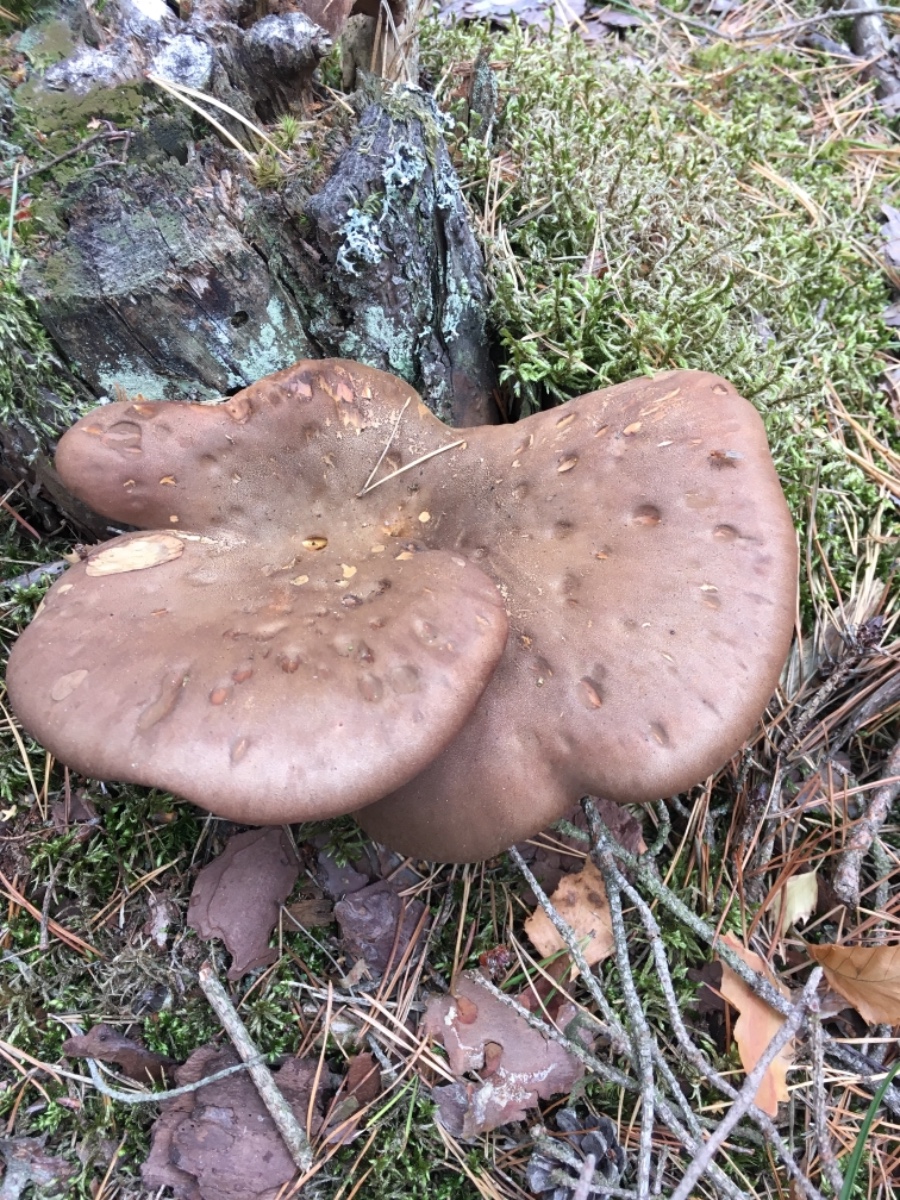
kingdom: Fungi
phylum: Basidiomycota
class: Agaricomycetes
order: Boletales
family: Tapinellaceae
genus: Tapinella
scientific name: Tapinella atrotomentosa
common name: sortfiltet viftesvamp
